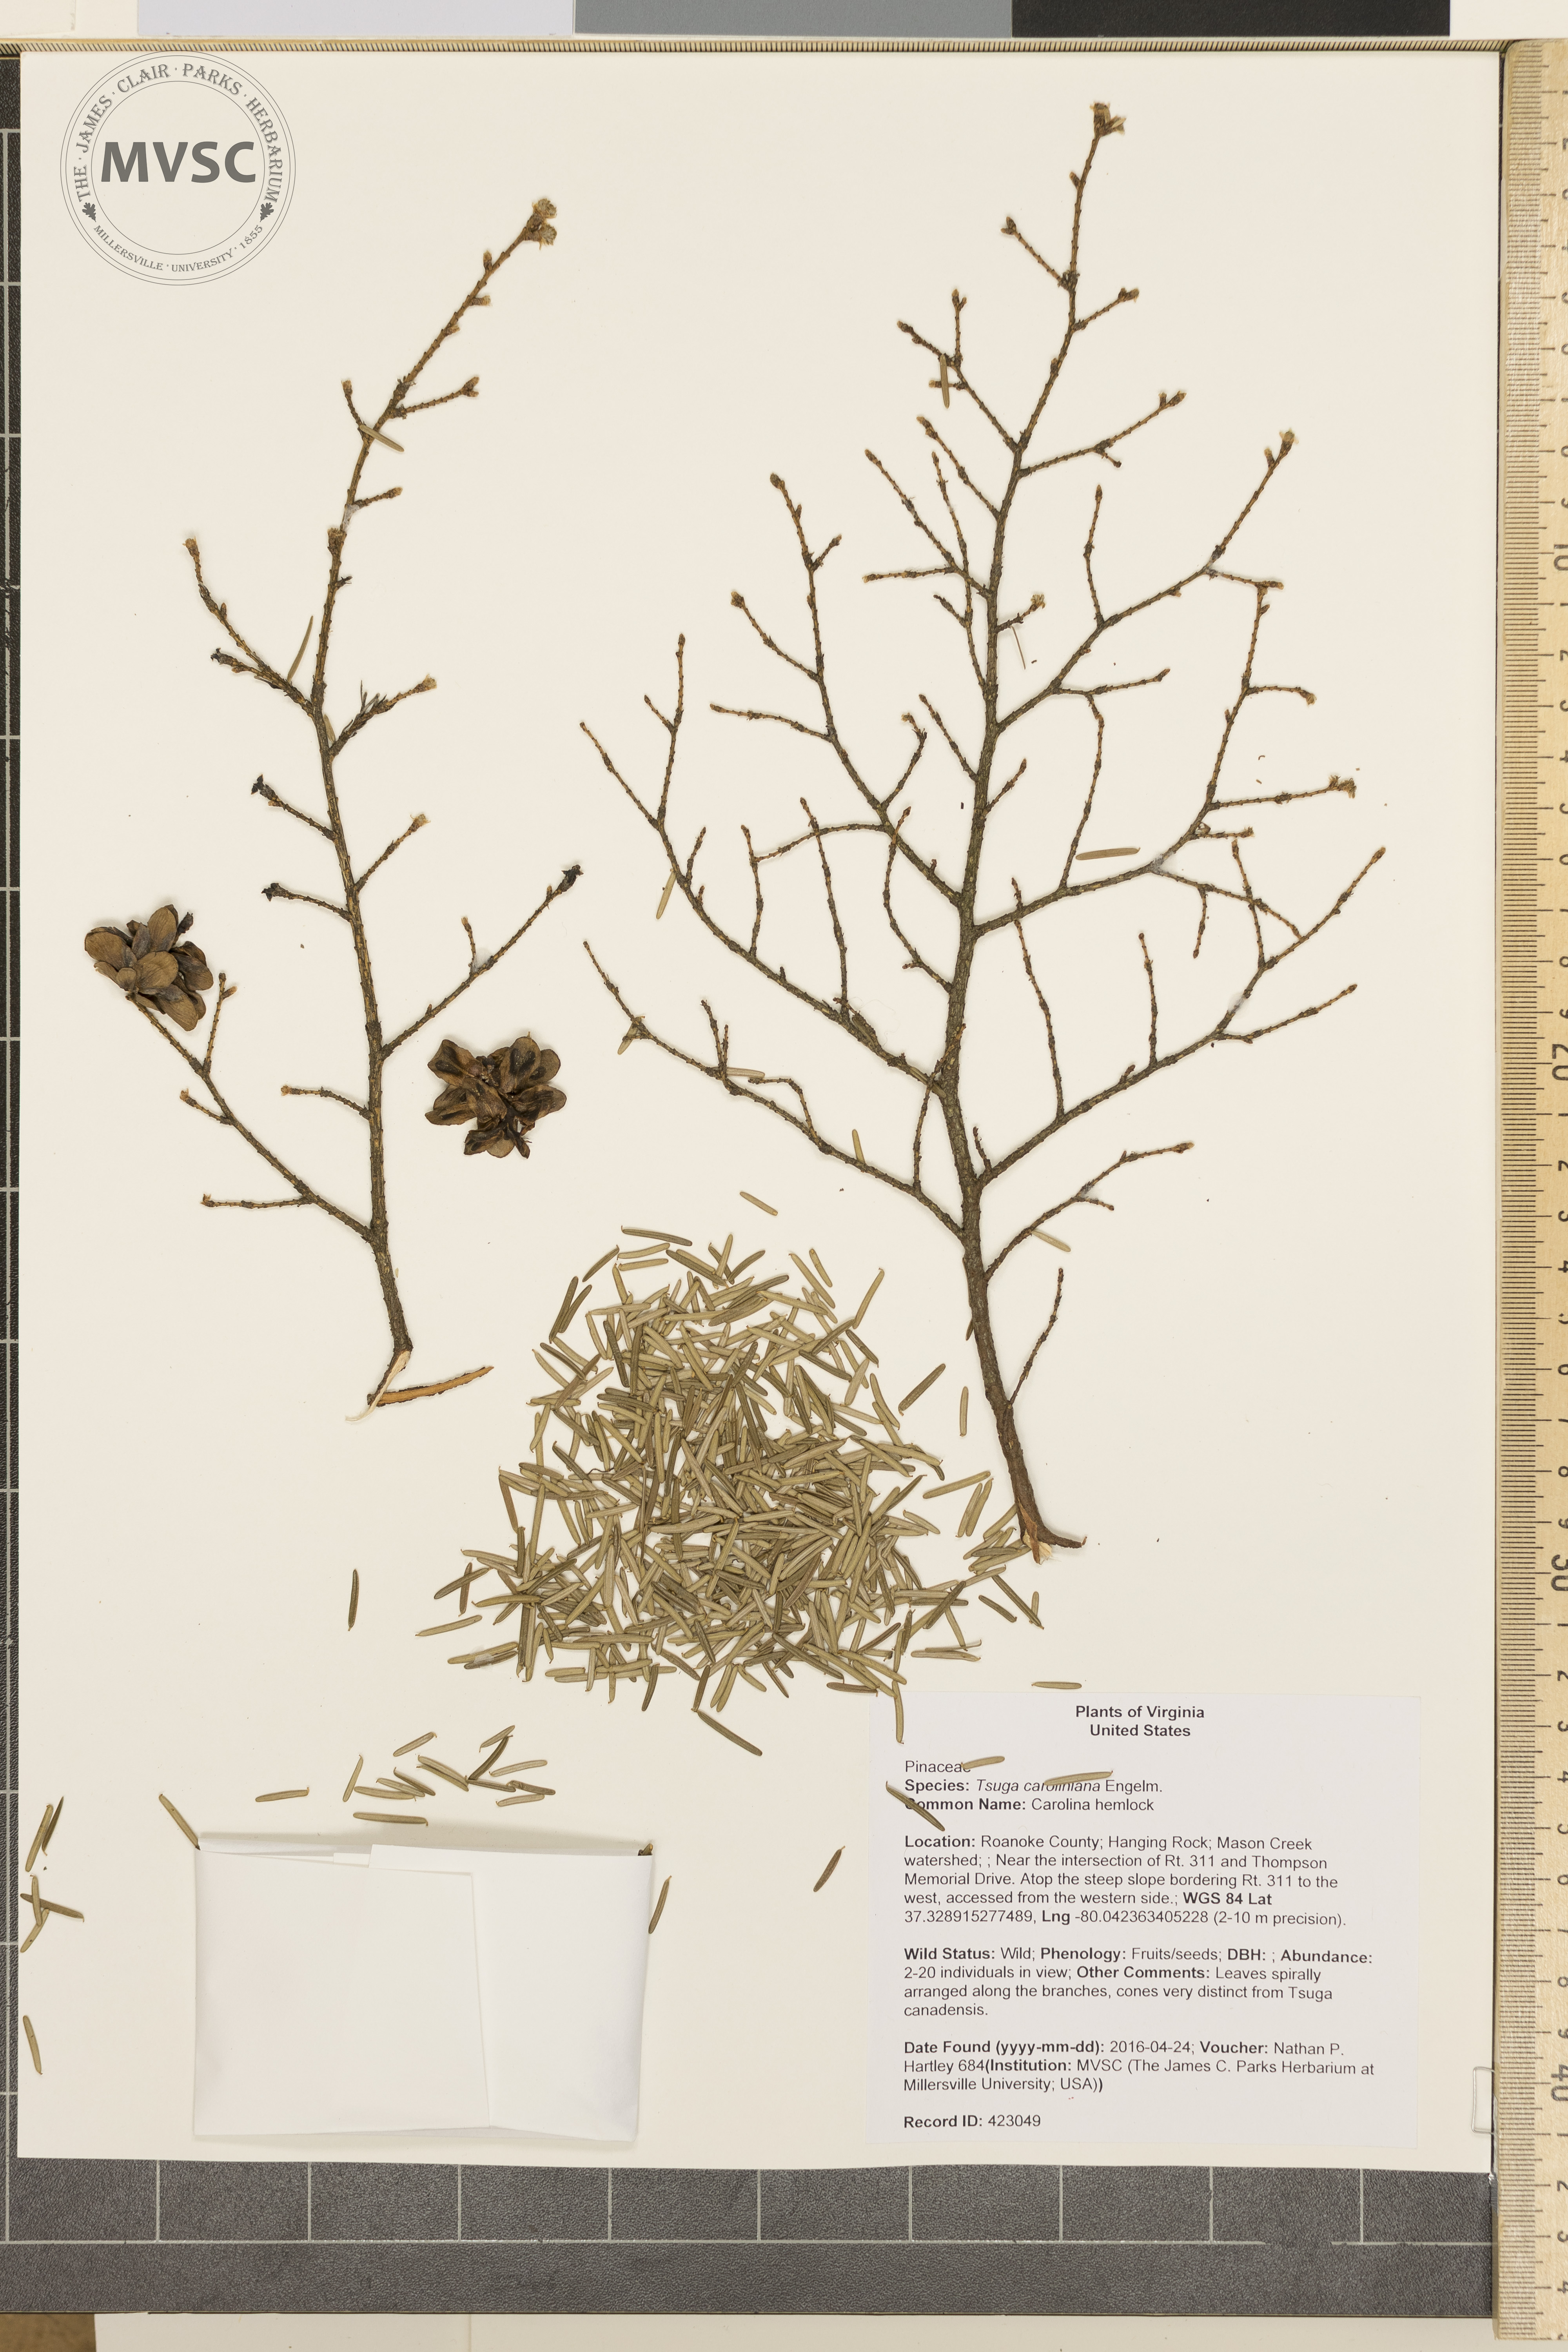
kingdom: Plantae
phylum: Tracheophyta
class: Pinopsida
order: Pinales
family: Pinaceae
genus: Tsuga
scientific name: Tsuga caroliniana
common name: Carolina hemlock
